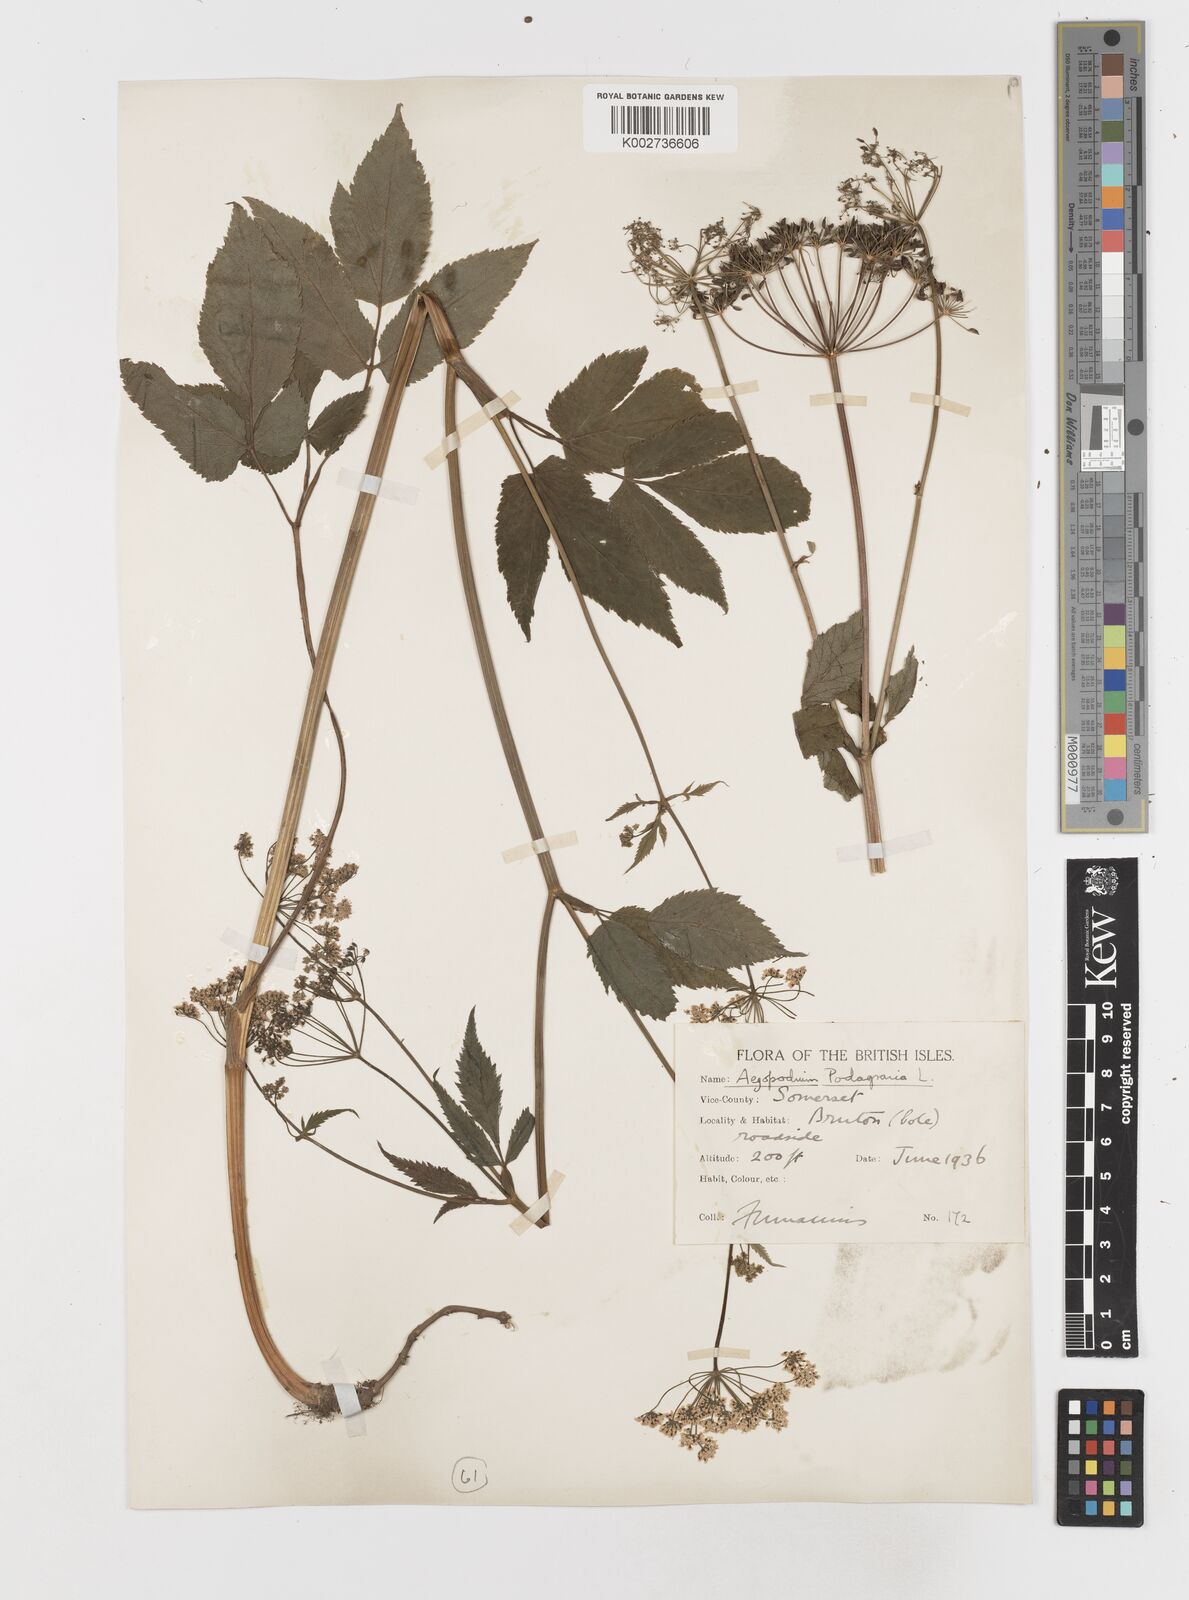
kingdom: Plantae
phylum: Tracheophyta
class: Magnoliopsida
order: Apiales
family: Apiaceae
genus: Aegopodium
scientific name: Aegopodium podagraria
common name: Ground-elder
